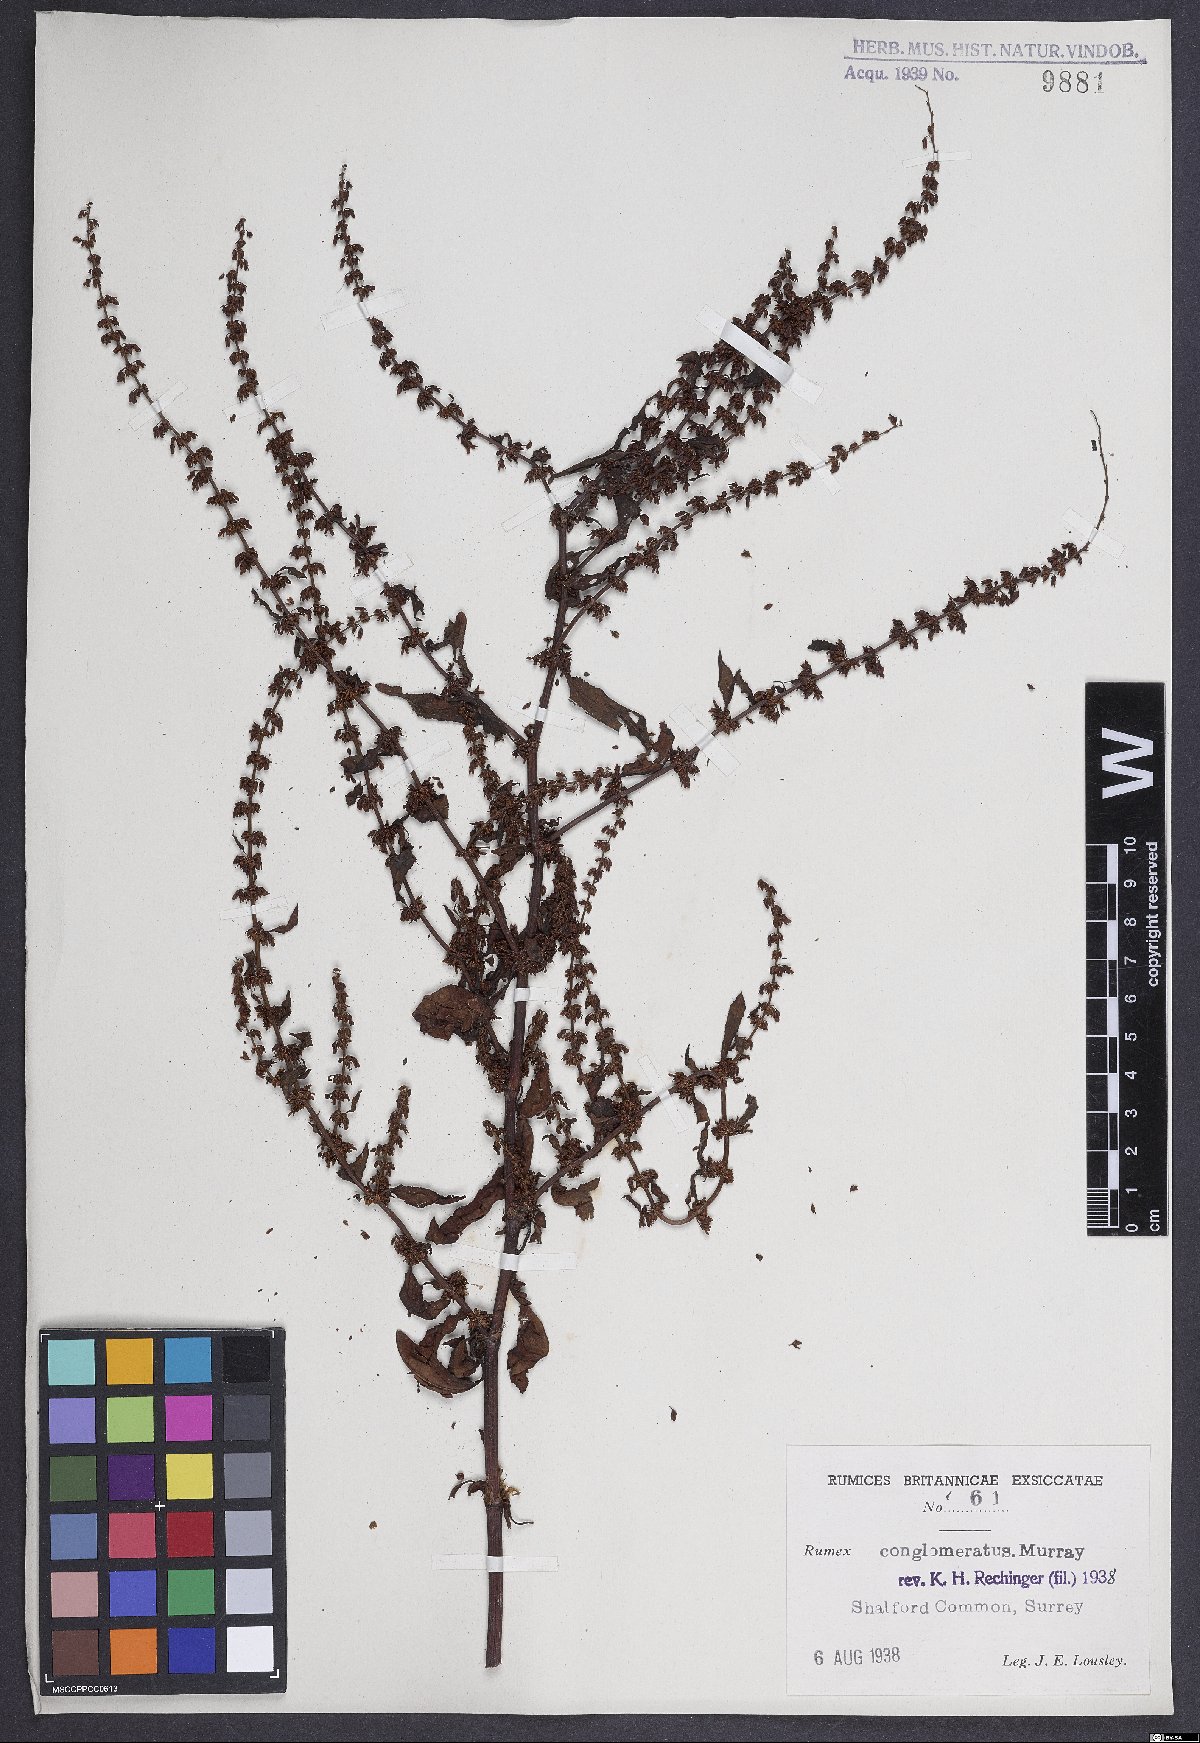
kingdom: Plantae
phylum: Tracheophyta
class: Magnoliopsida
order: Caryophyllales
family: Polygonaceae
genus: Rumex
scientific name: Rumex conglomeratus
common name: Clustered dock
